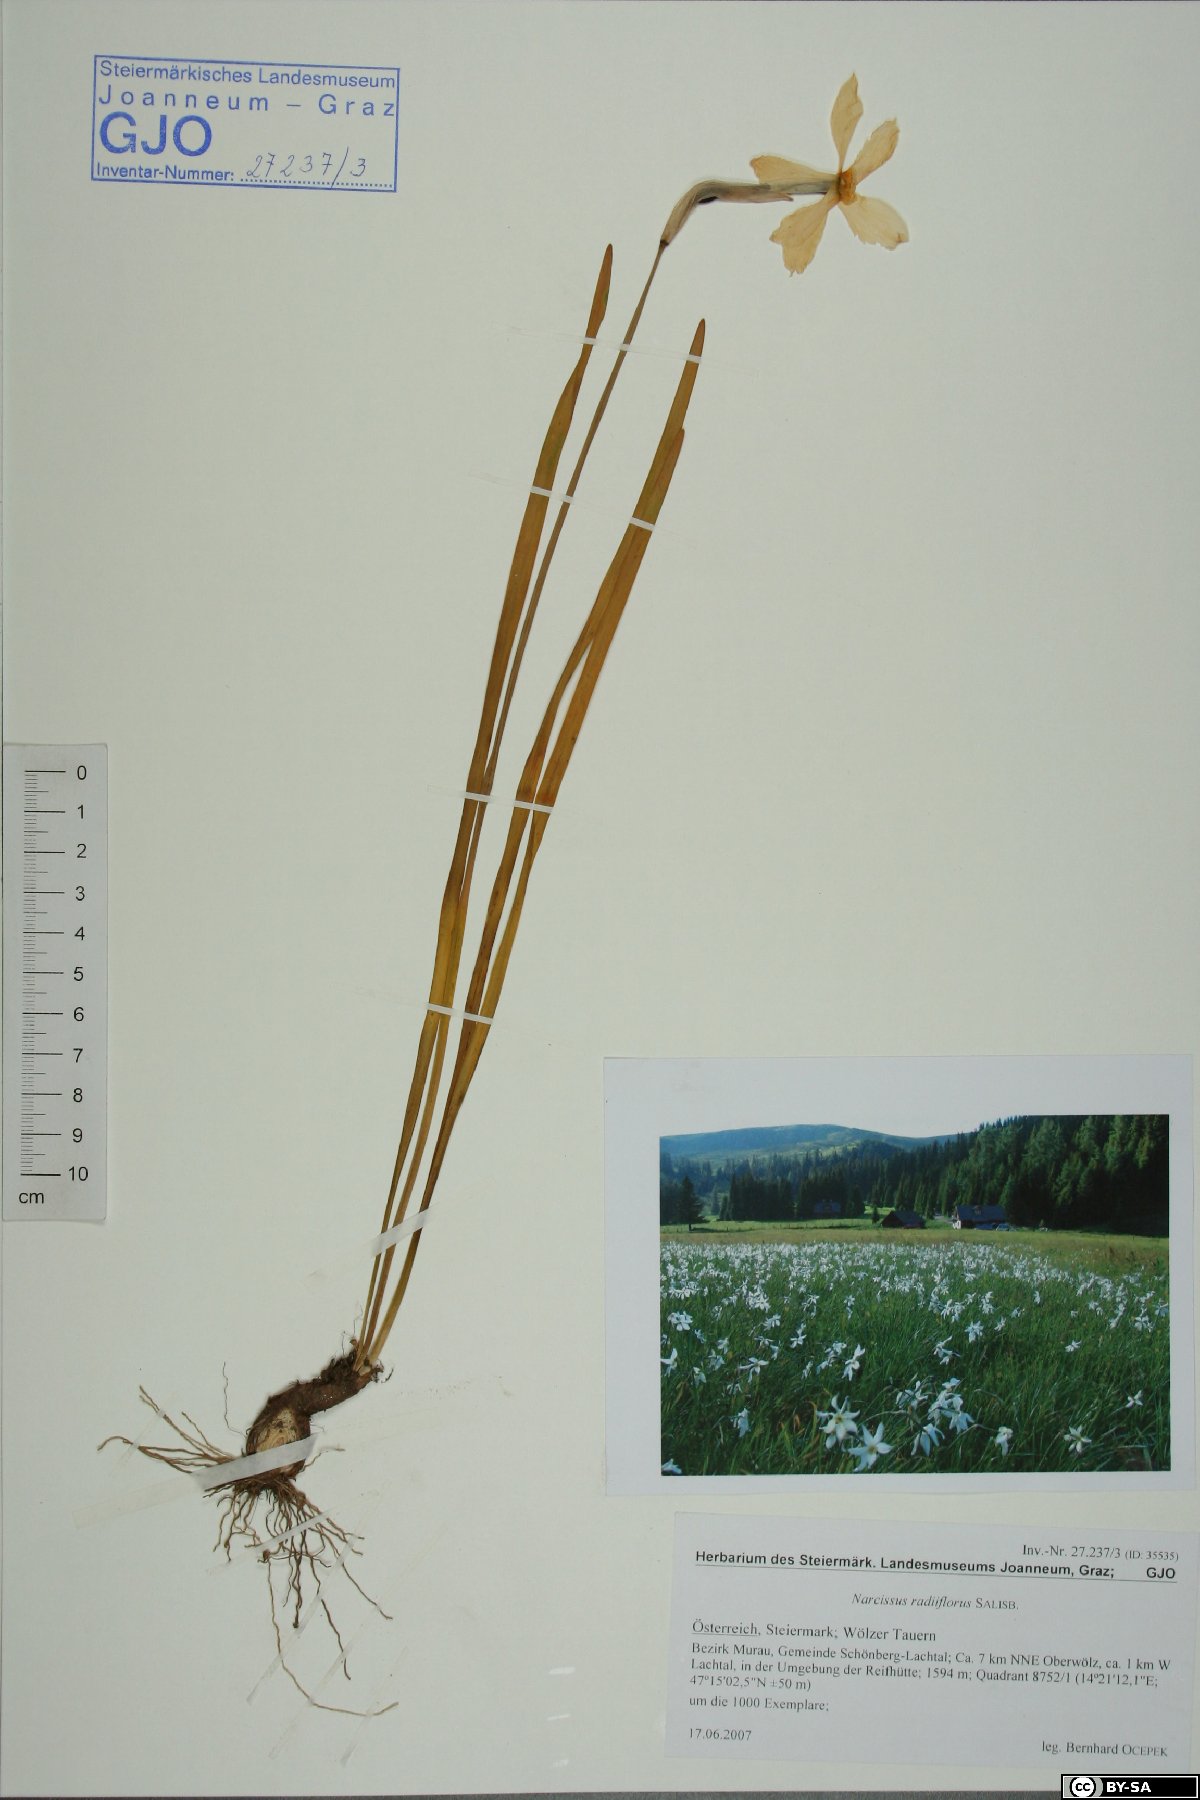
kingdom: Plantae
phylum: Tracheophyta
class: Liliopsida
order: Asparagales
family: Amaryllidaceae
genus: Narcissus
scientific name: Narcissus poeticus
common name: Pheasant's-eye daffodil
